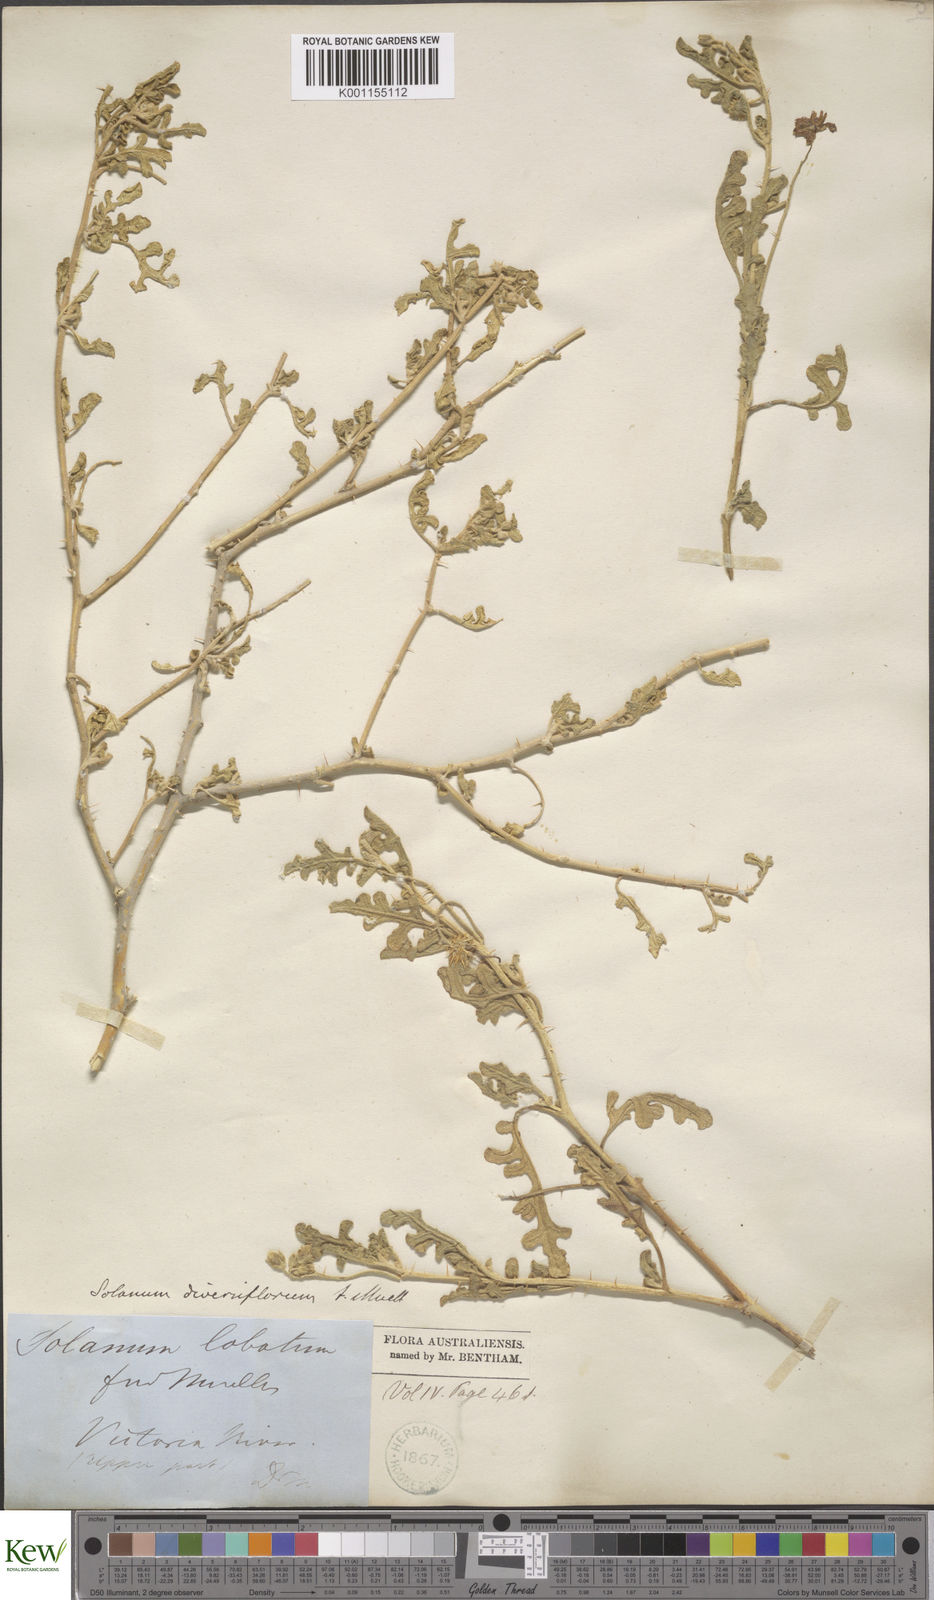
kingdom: Plantae
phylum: Tracheophyta
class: Magnoliopsida
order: Solanales
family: Solanaceae
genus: Solanum
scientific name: Solanum diversiflorum
